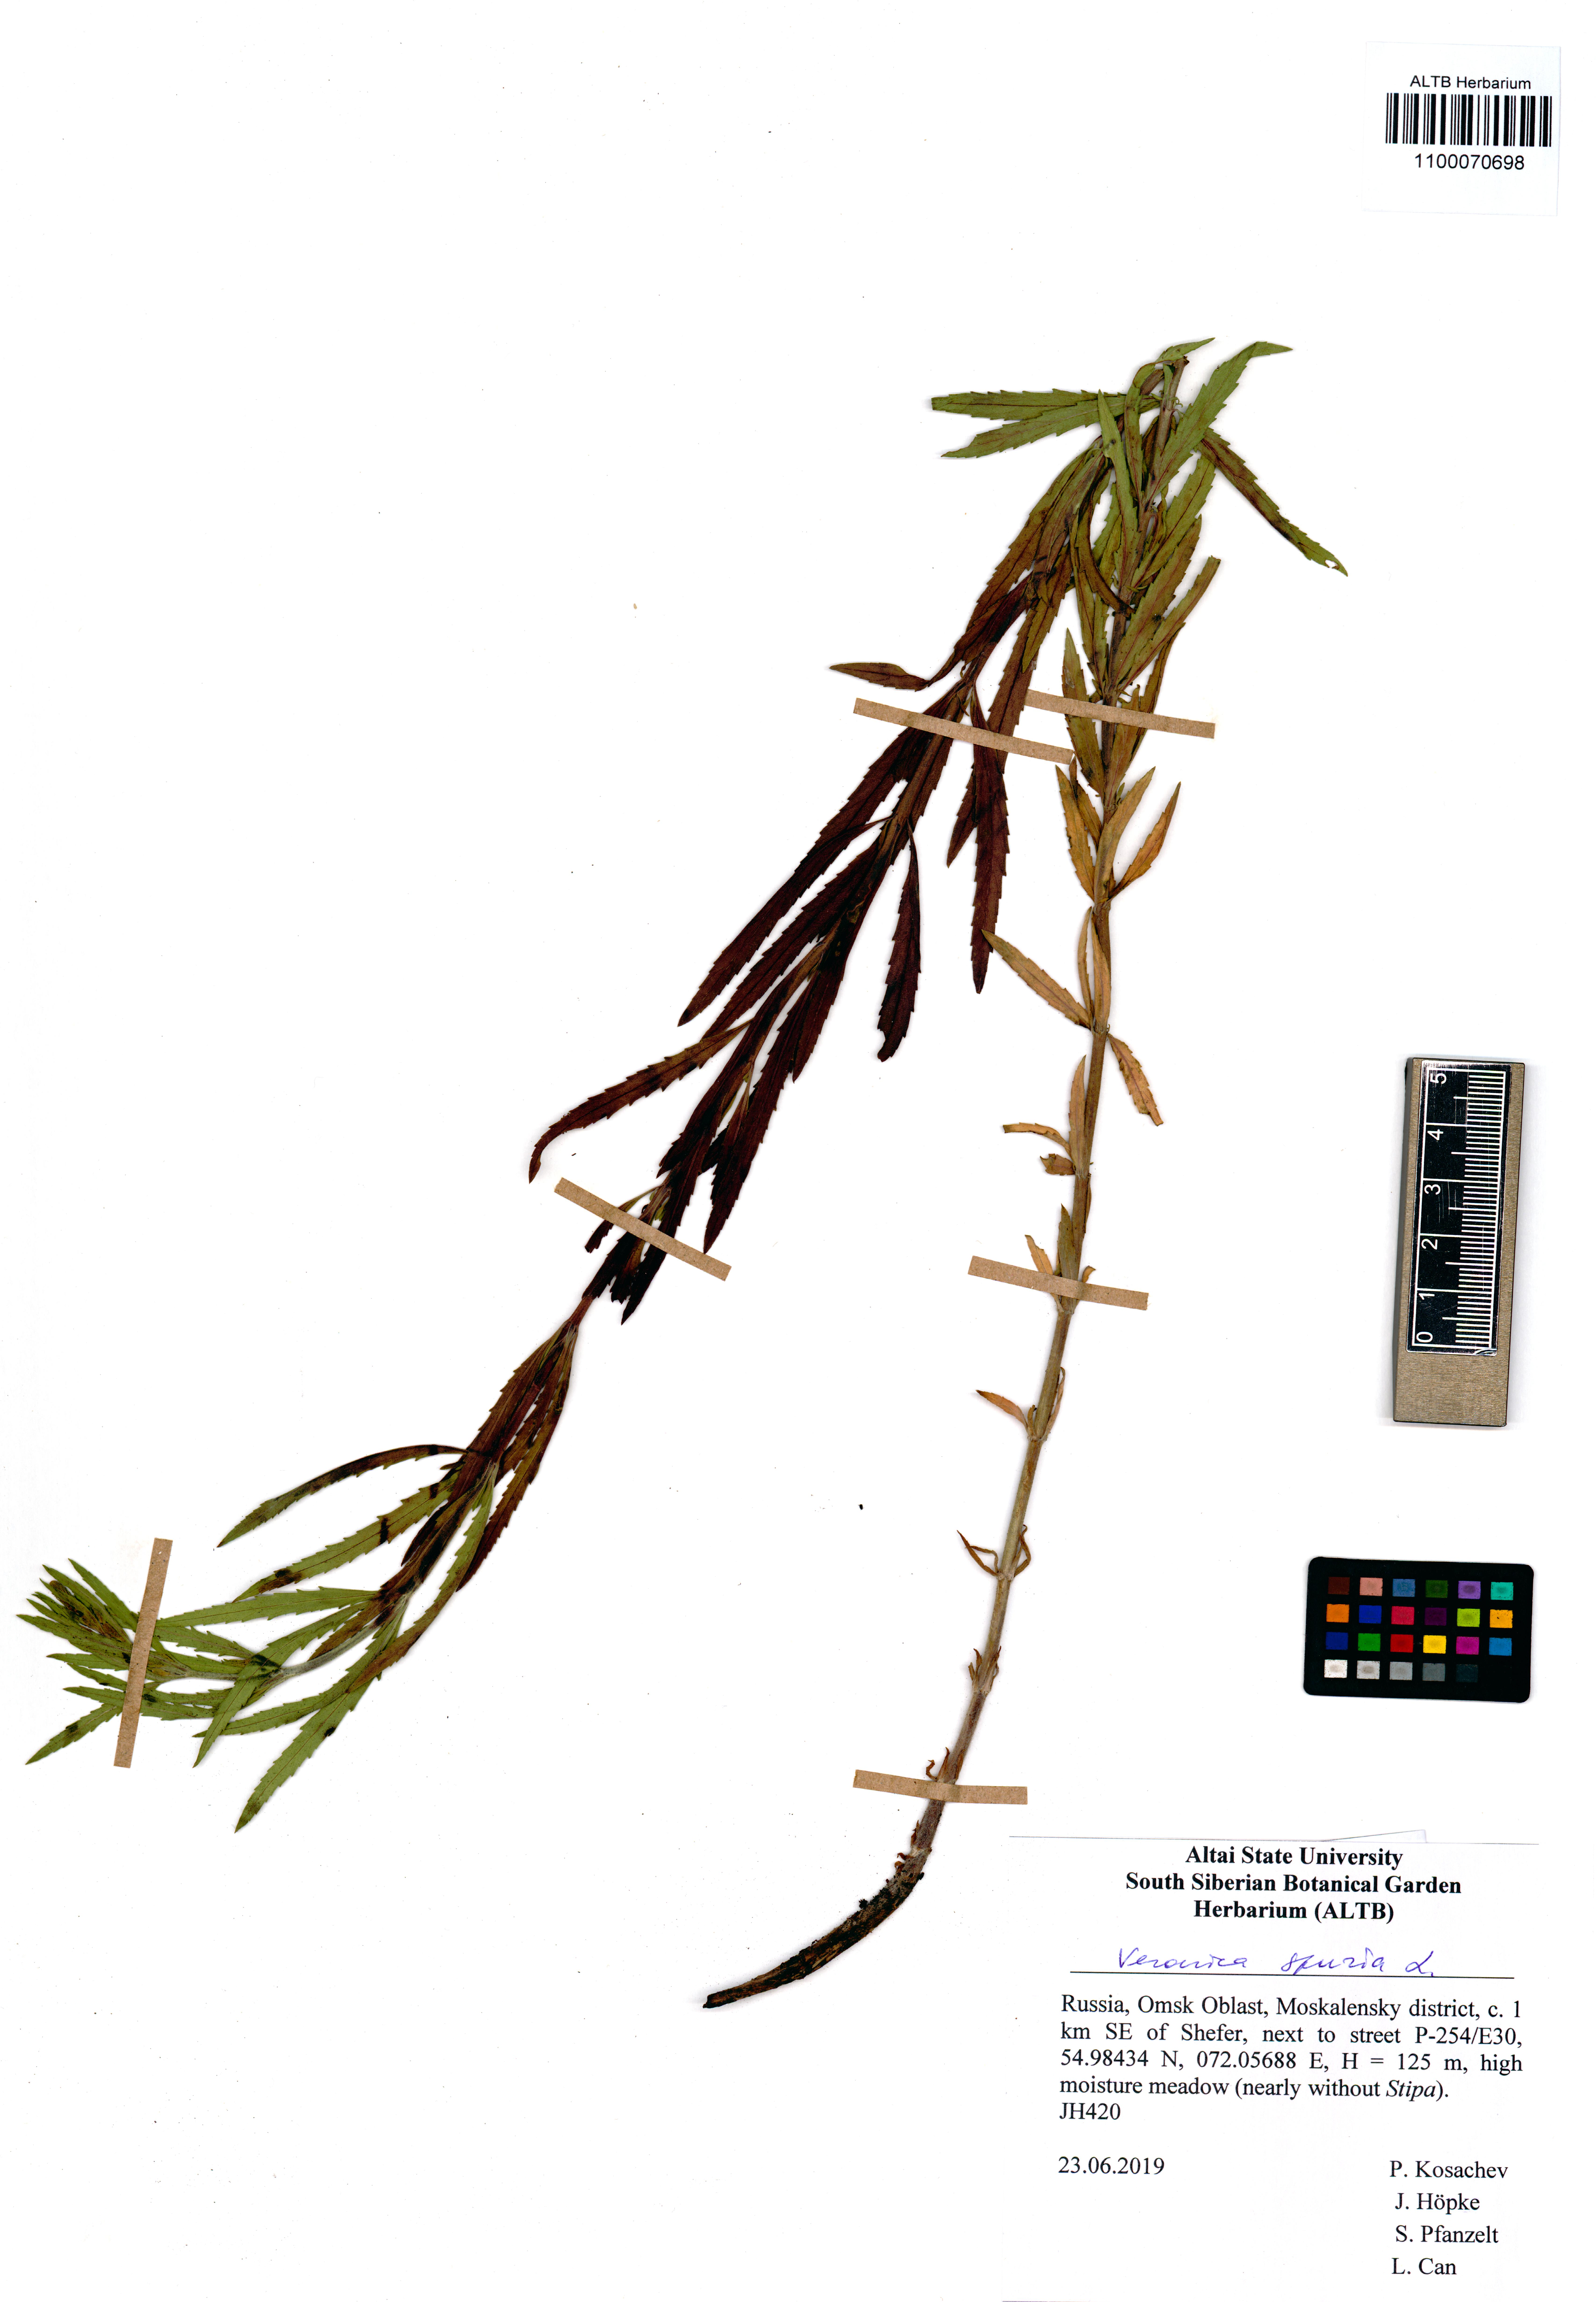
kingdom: Plantae
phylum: Tracheophyta
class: Magnoliopsida
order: Lamiales
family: Plantaginaceae
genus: Veronica
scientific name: Veronica spuria
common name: Bastard speedwell
